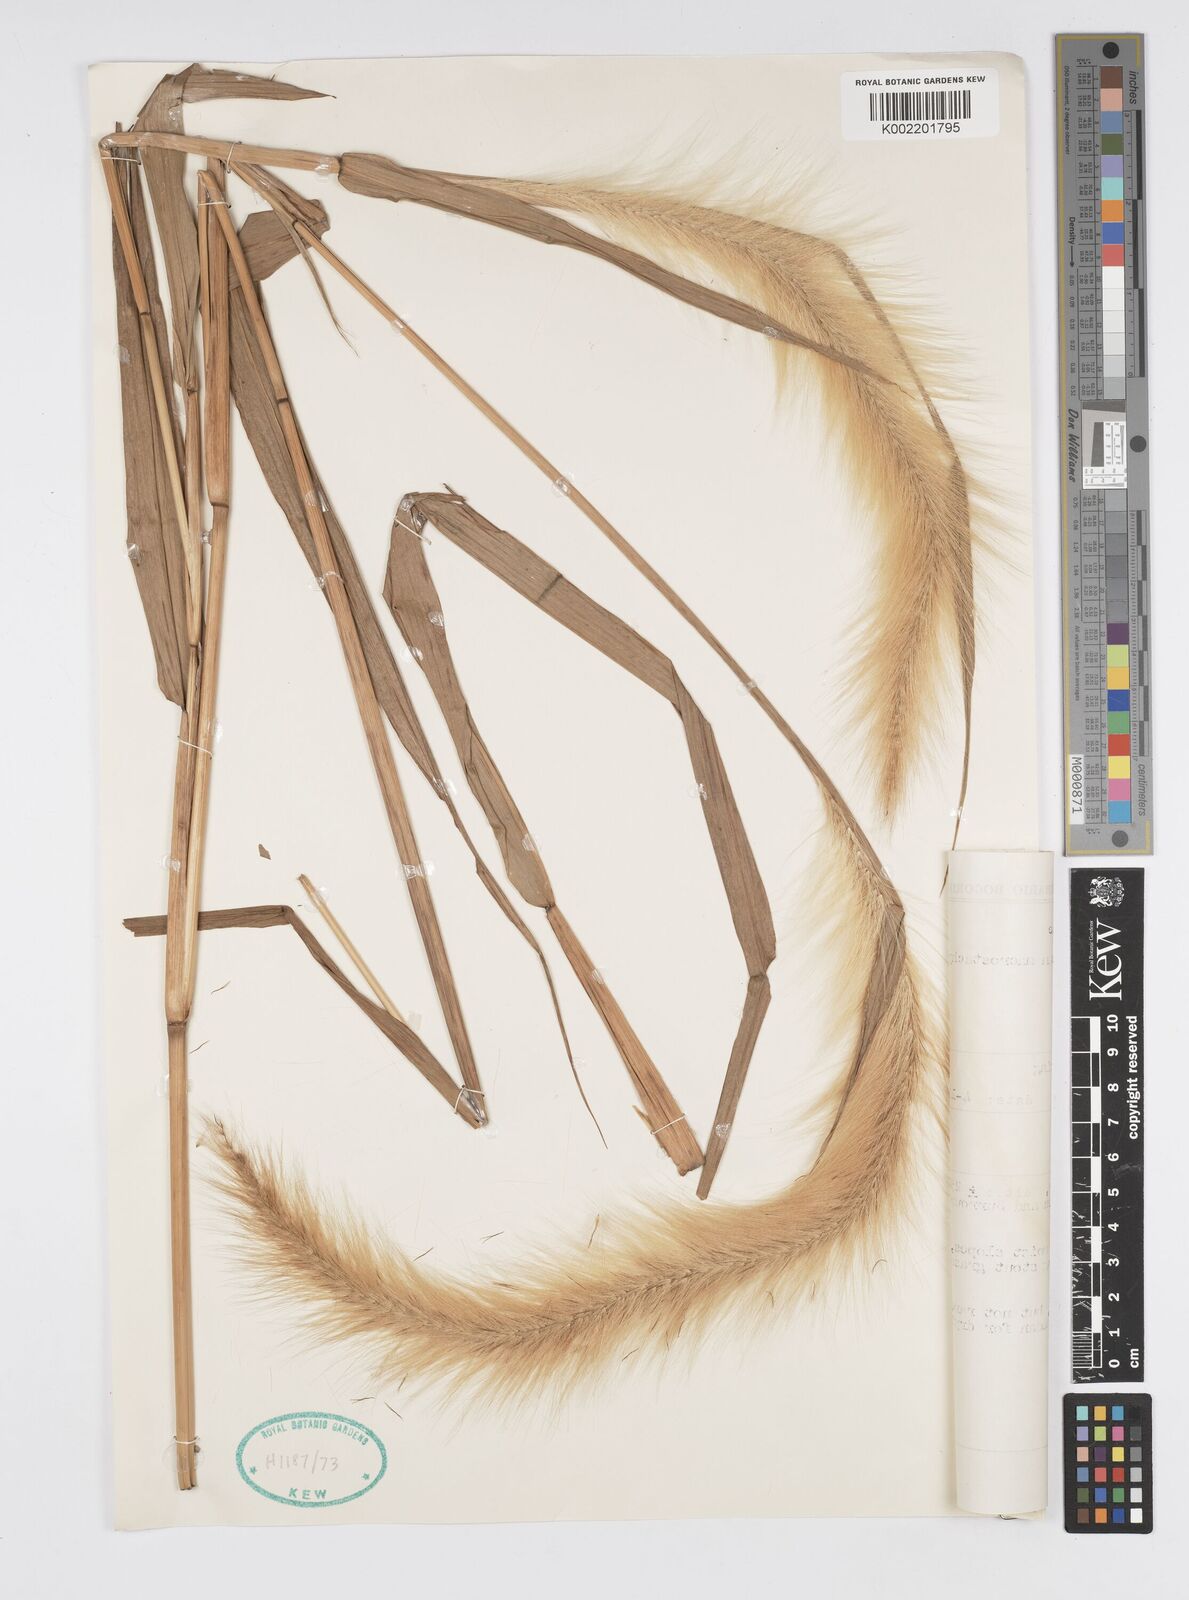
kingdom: Plantae
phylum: Tracheophyta
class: Liliopsida
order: Poales
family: Poaceae
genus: Cenchrus
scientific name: Cenchrus purpureus
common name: Elephant grass
